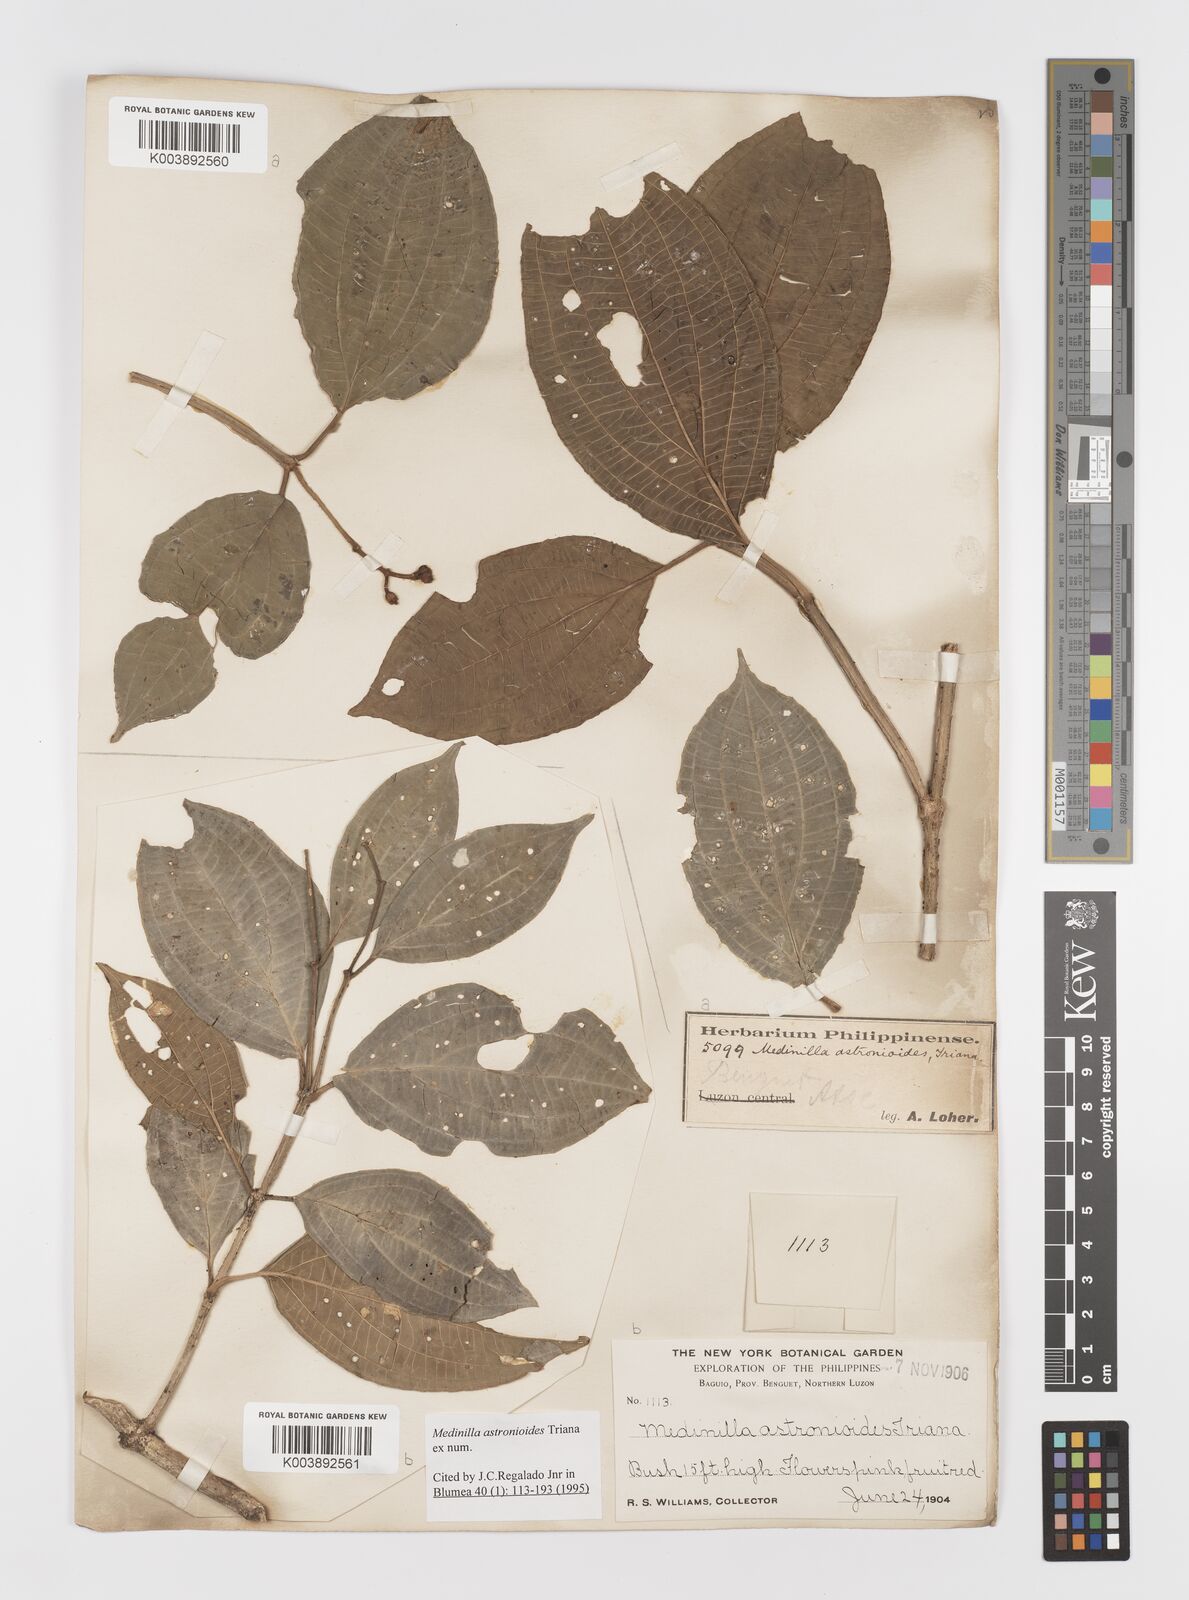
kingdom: Plantae
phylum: Tracheophyta
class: Magnoliopsida
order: Myrtales
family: Melastomataceae
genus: Medinilla
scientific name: Medinilla astronioides
